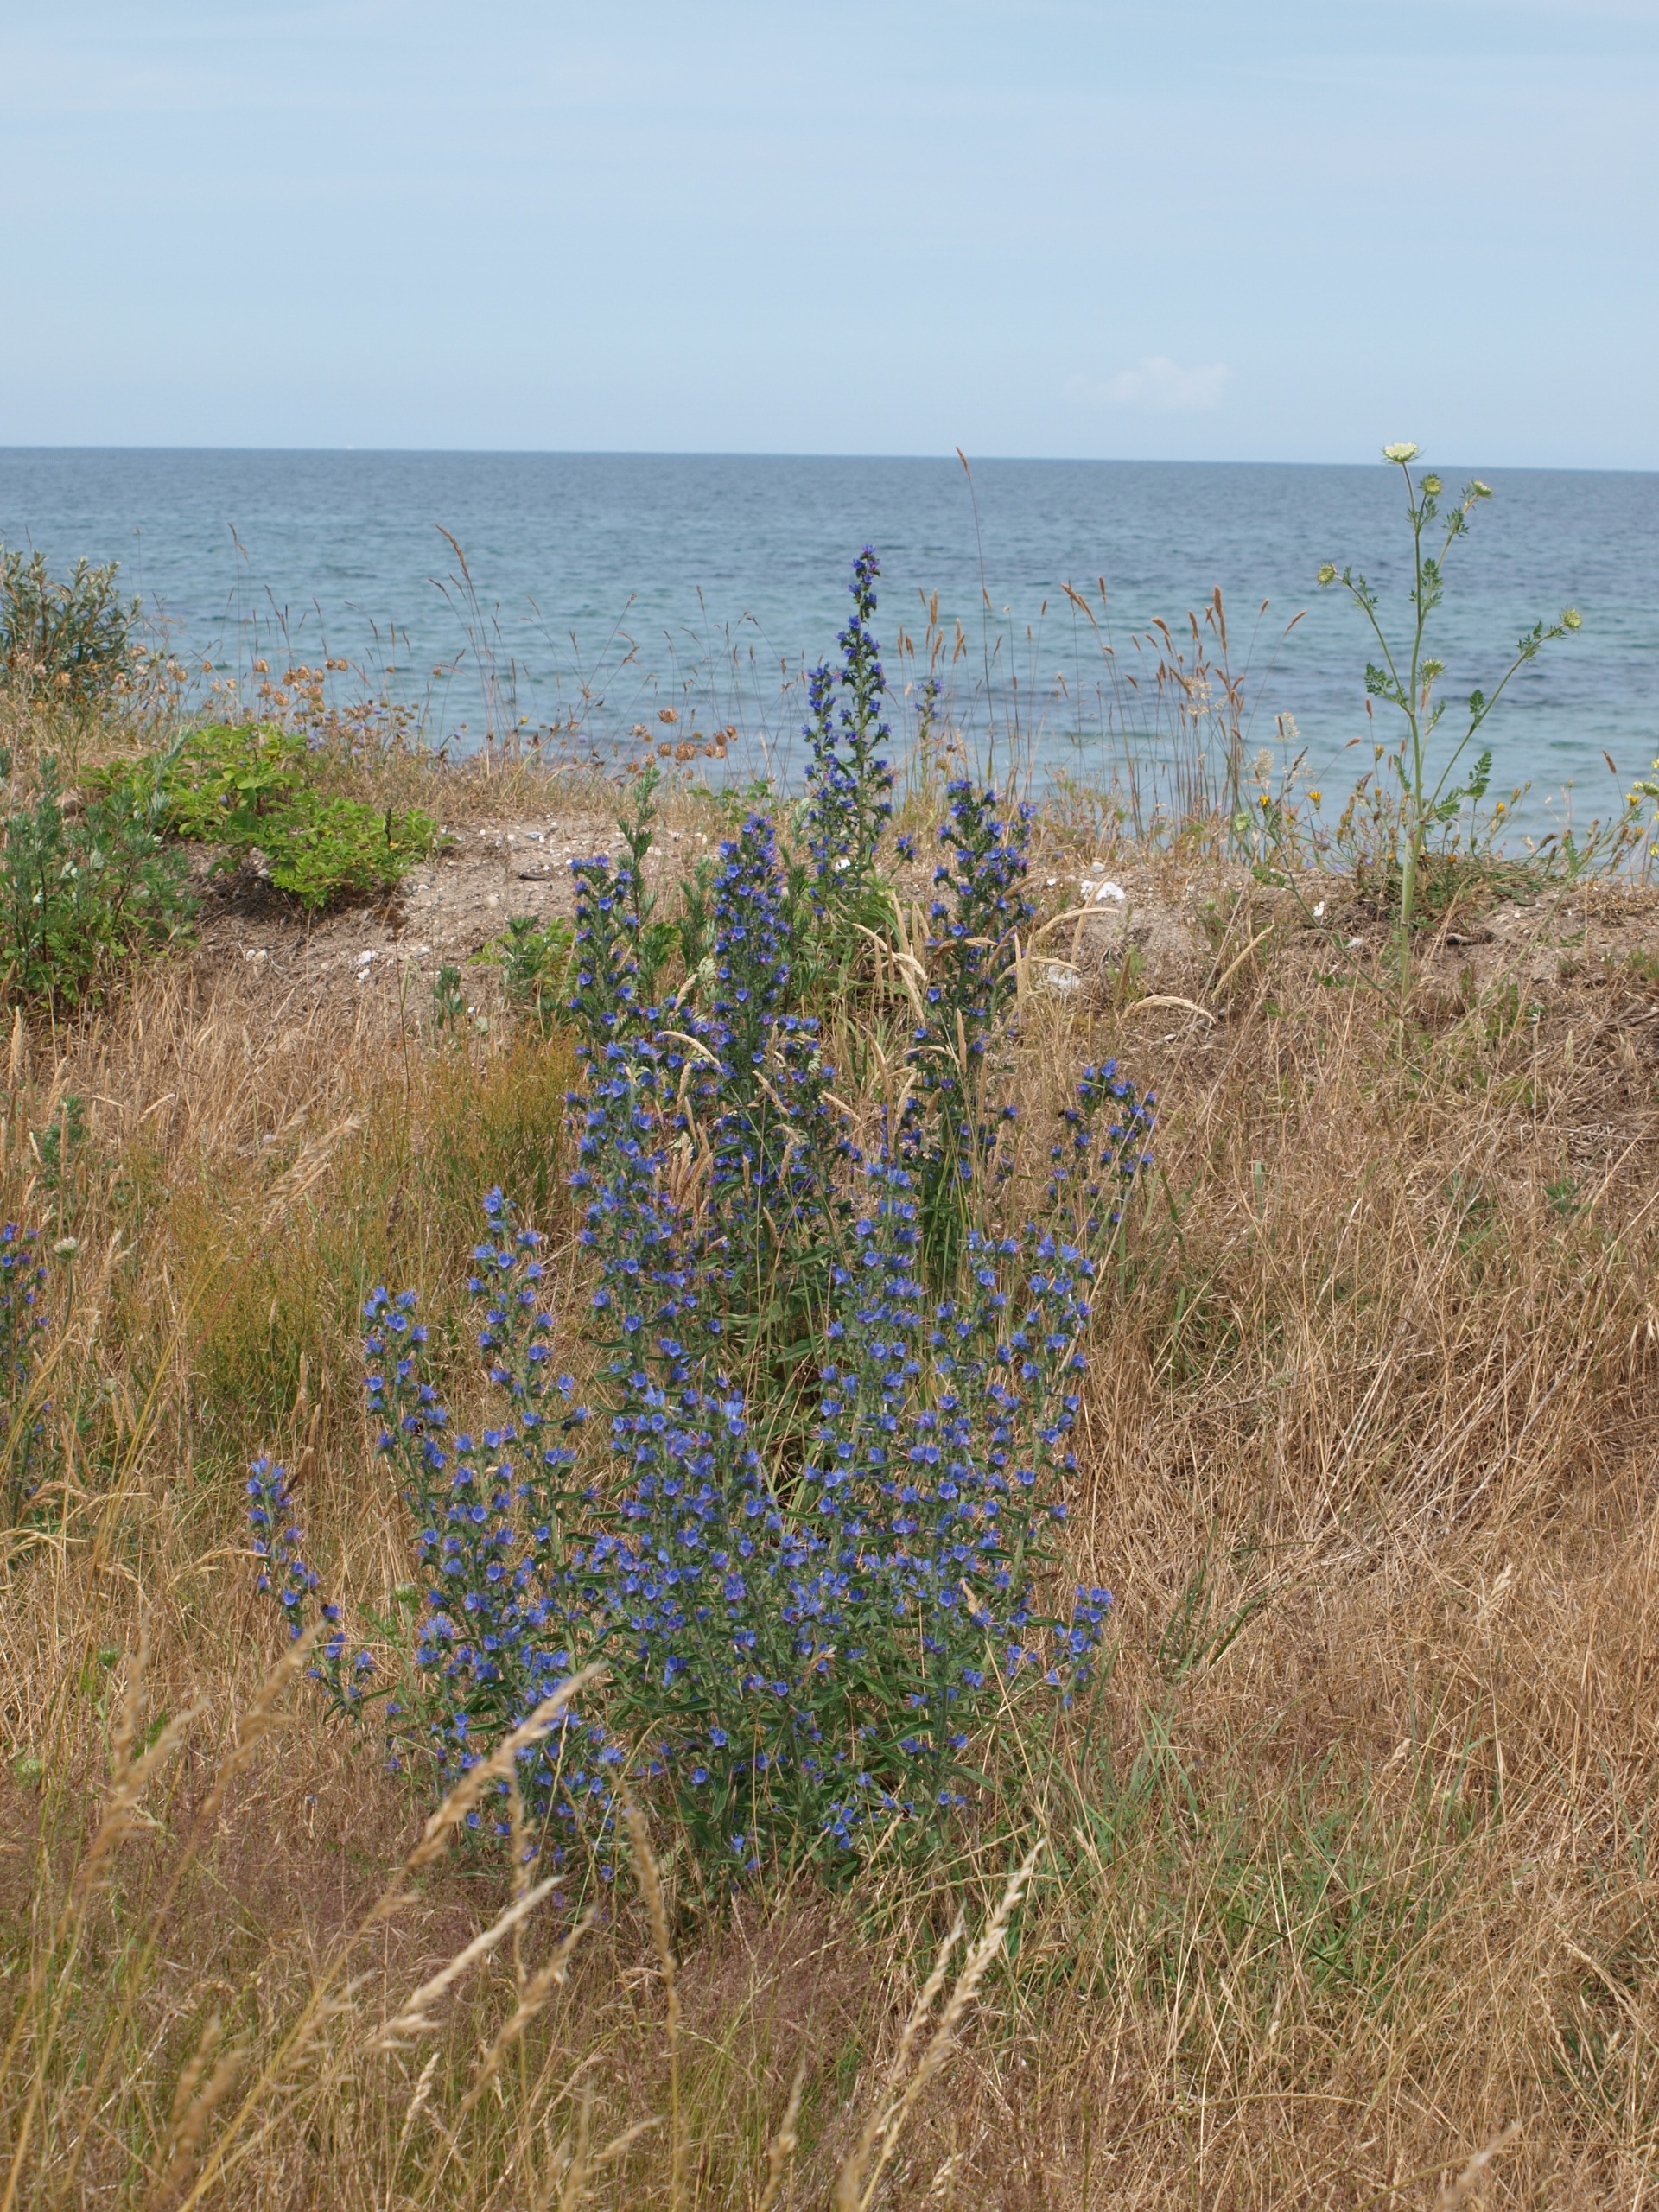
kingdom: Plantae
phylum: Tracheophyta
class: Magnoliopsida
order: Boraginales
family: Boraginaceae
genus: Echium
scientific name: Echium vulgare
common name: Slangehoved
